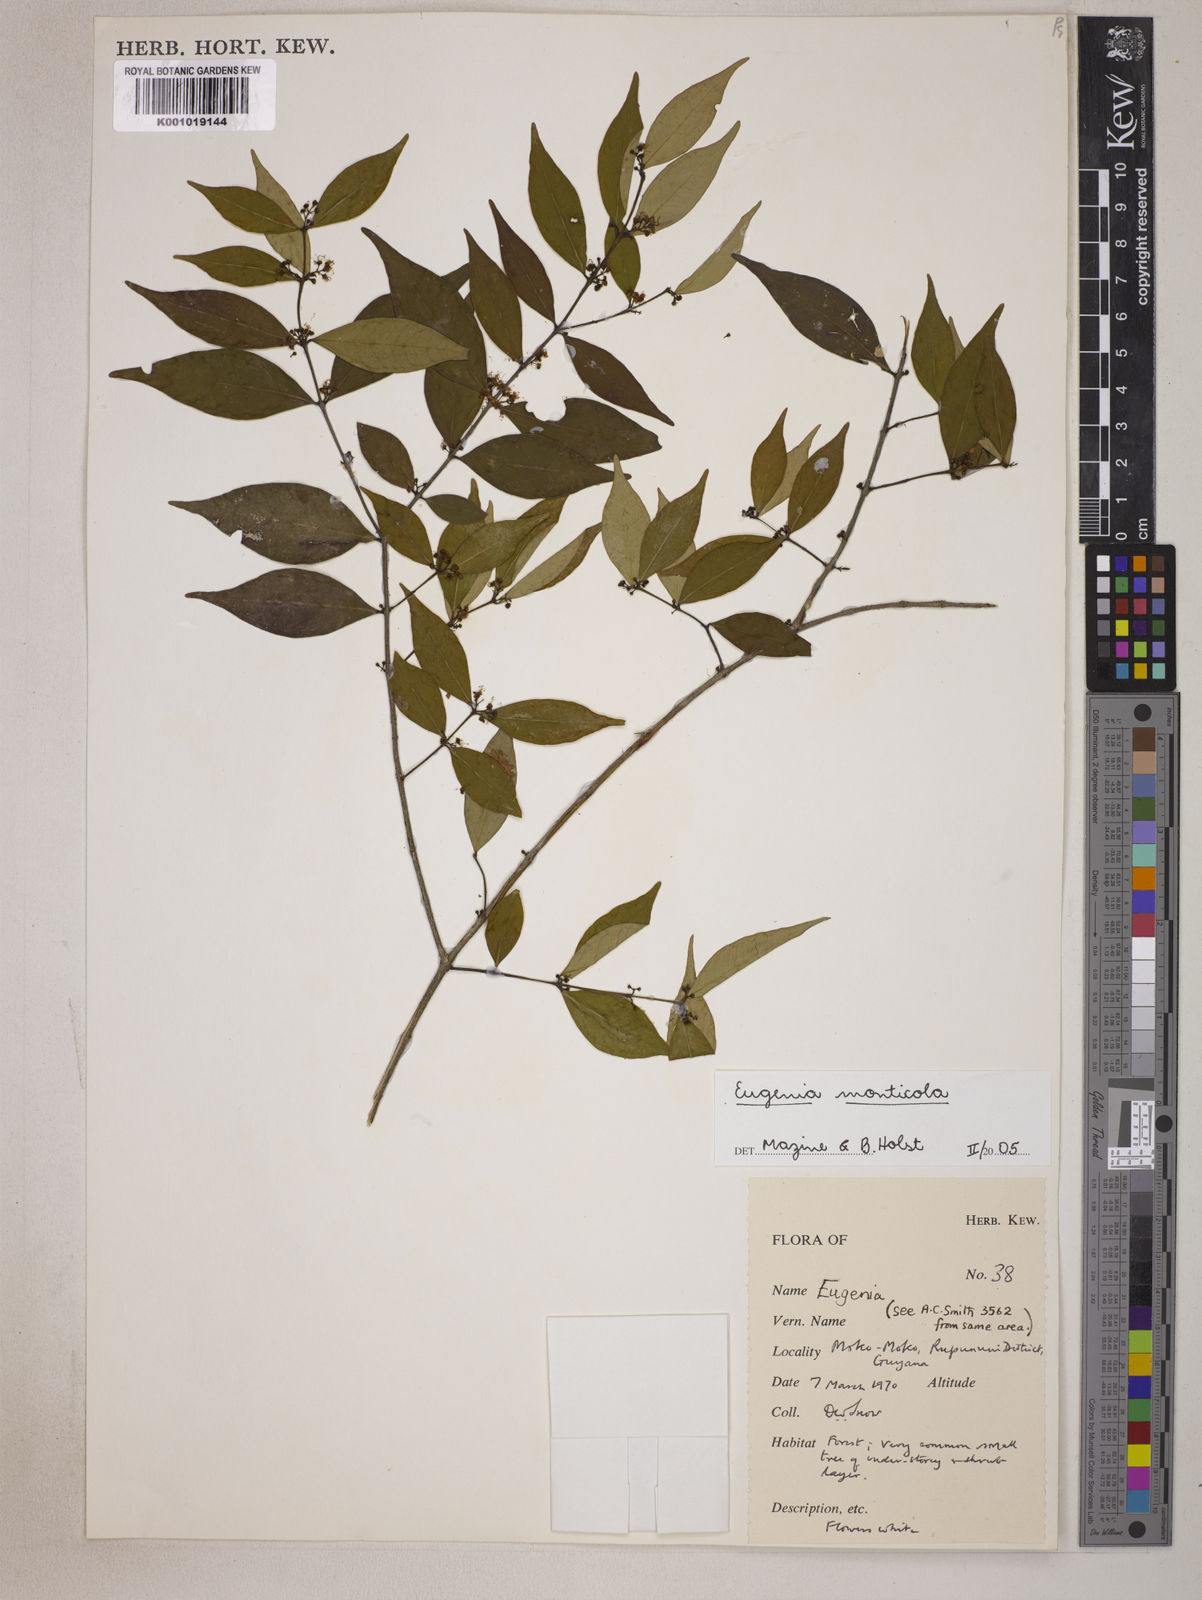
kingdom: Plantae
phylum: Tracheophyta
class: Magnoliopsida
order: Myrtales
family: Myrtaceae
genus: Eugenia
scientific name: Eugenia monticola
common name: Birds berry
